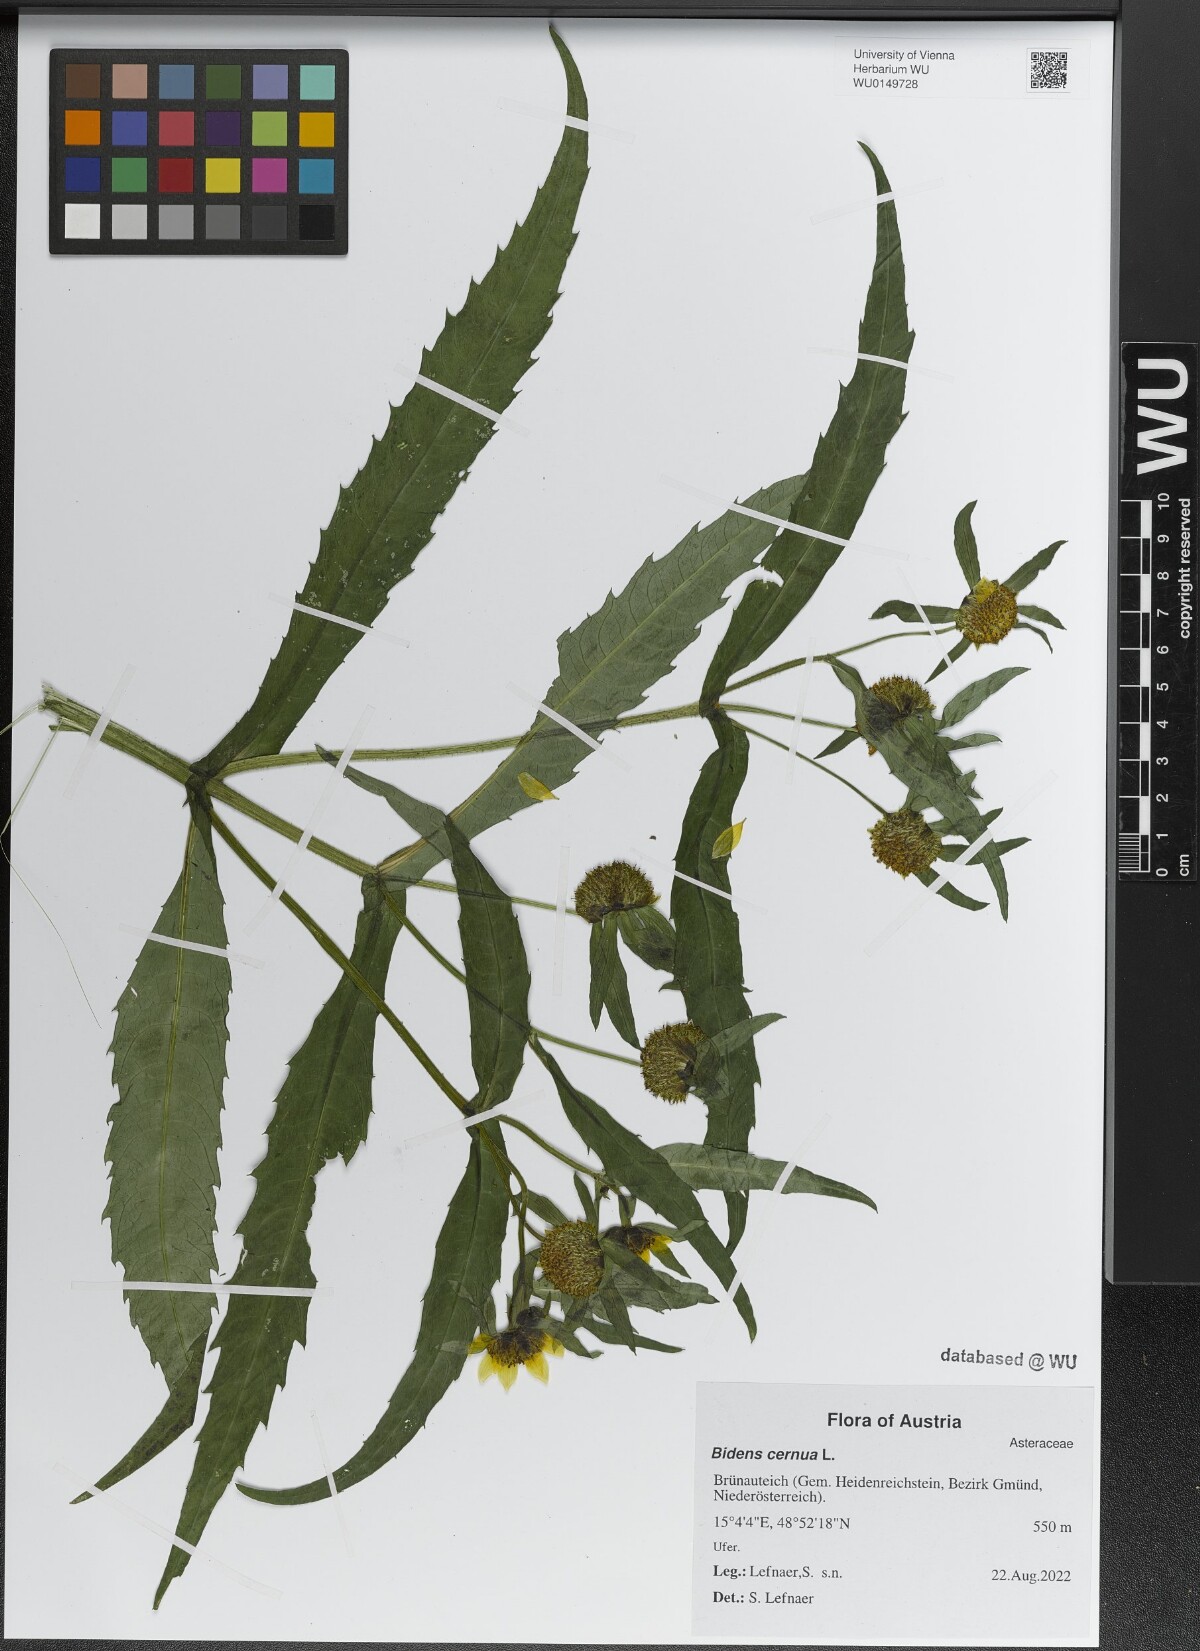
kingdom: Plantae
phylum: Tracheophyta
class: Magnoliopsida
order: Asterales
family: Asteraceae
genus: Bidens
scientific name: Bidens cernua
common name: Nodding bur-marigold
